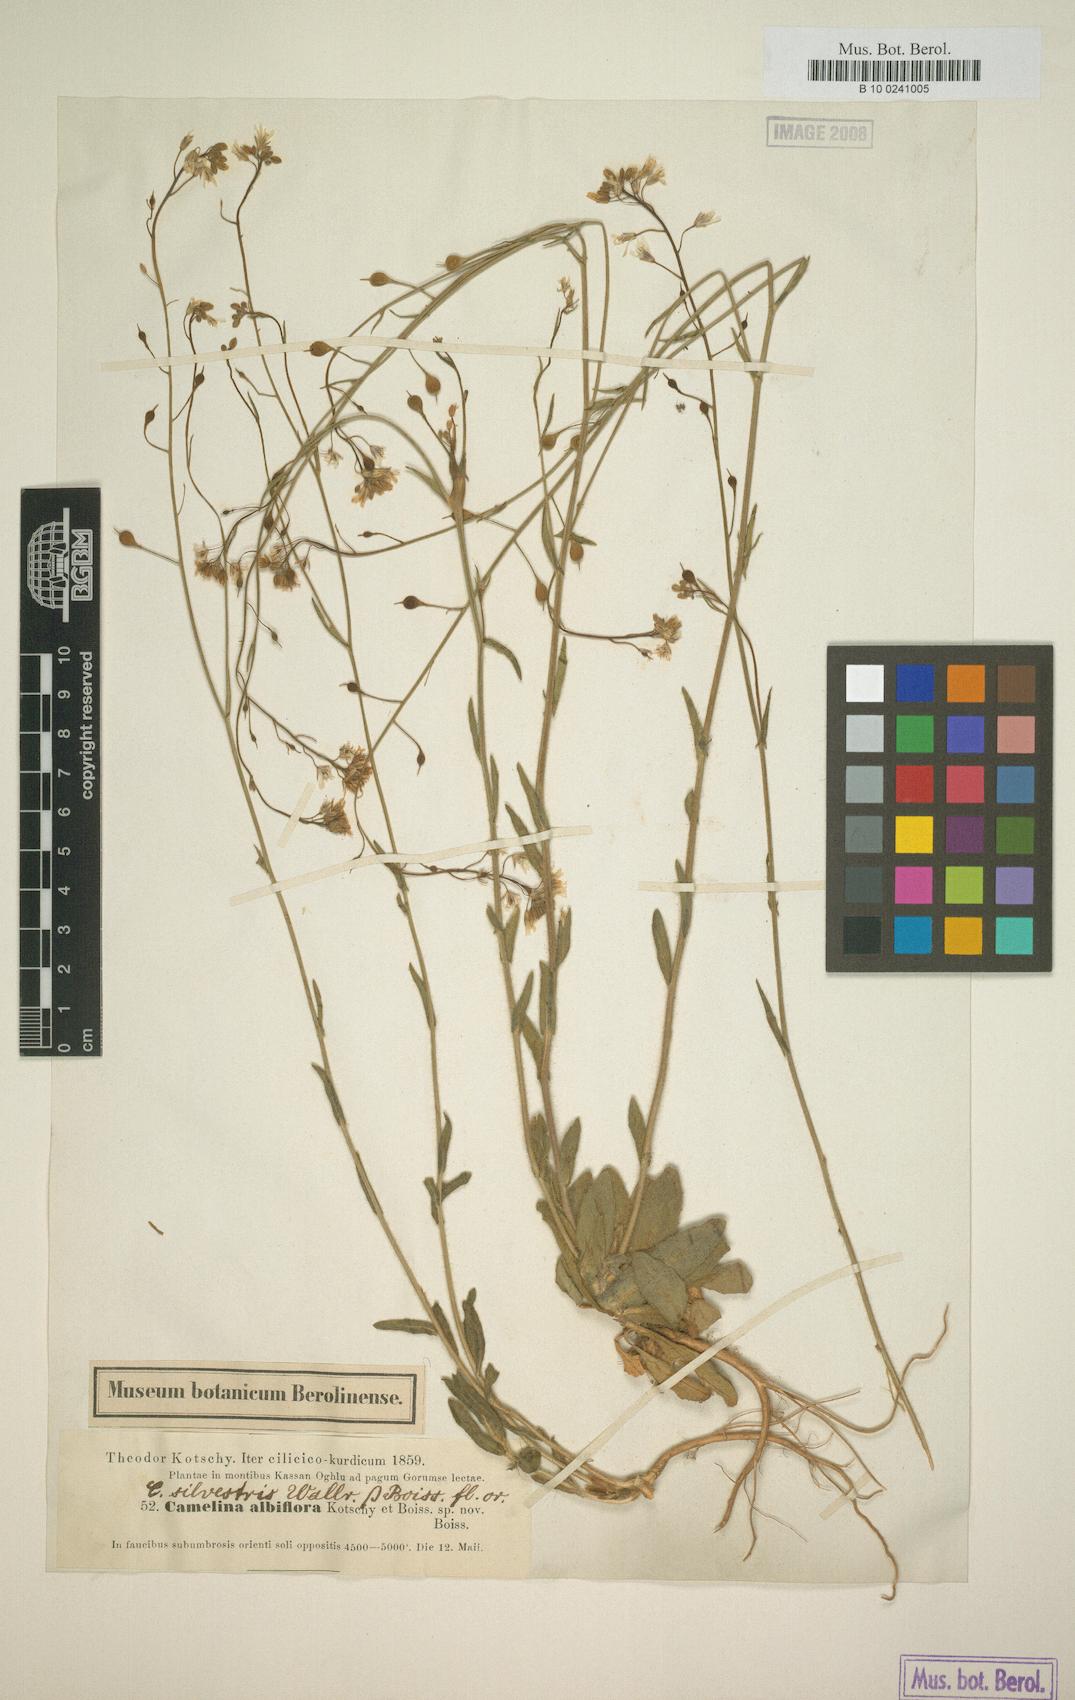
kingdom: Plantae
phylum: Tracheophyta
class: Magnoliopsida
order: Brassicales
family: Brassicaceae
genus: Camelina
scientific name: Camelina microcarpa
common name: Lesser gold-of-pleasure
